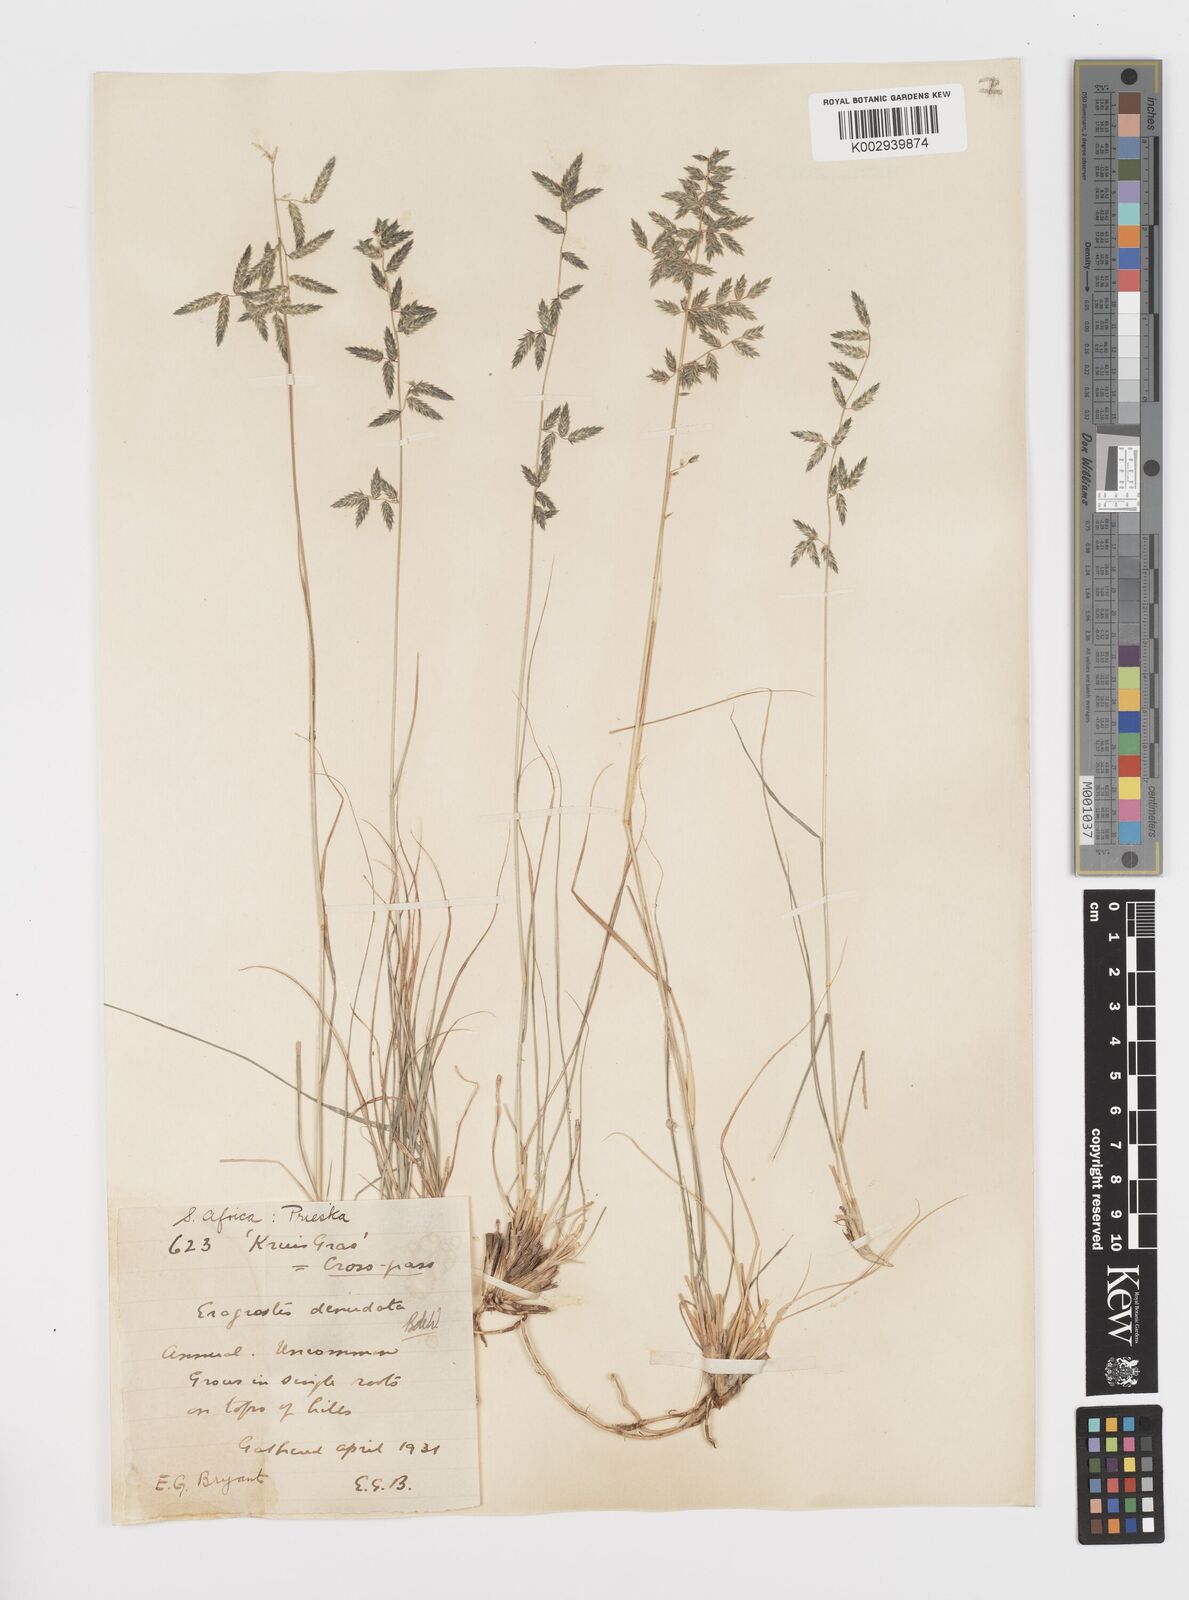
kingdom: Plantae
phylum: Tracheophyta
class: Liliopsida
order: Poales
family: Poaceae
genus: Eragrostis
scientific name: Eragrostis nindensis
